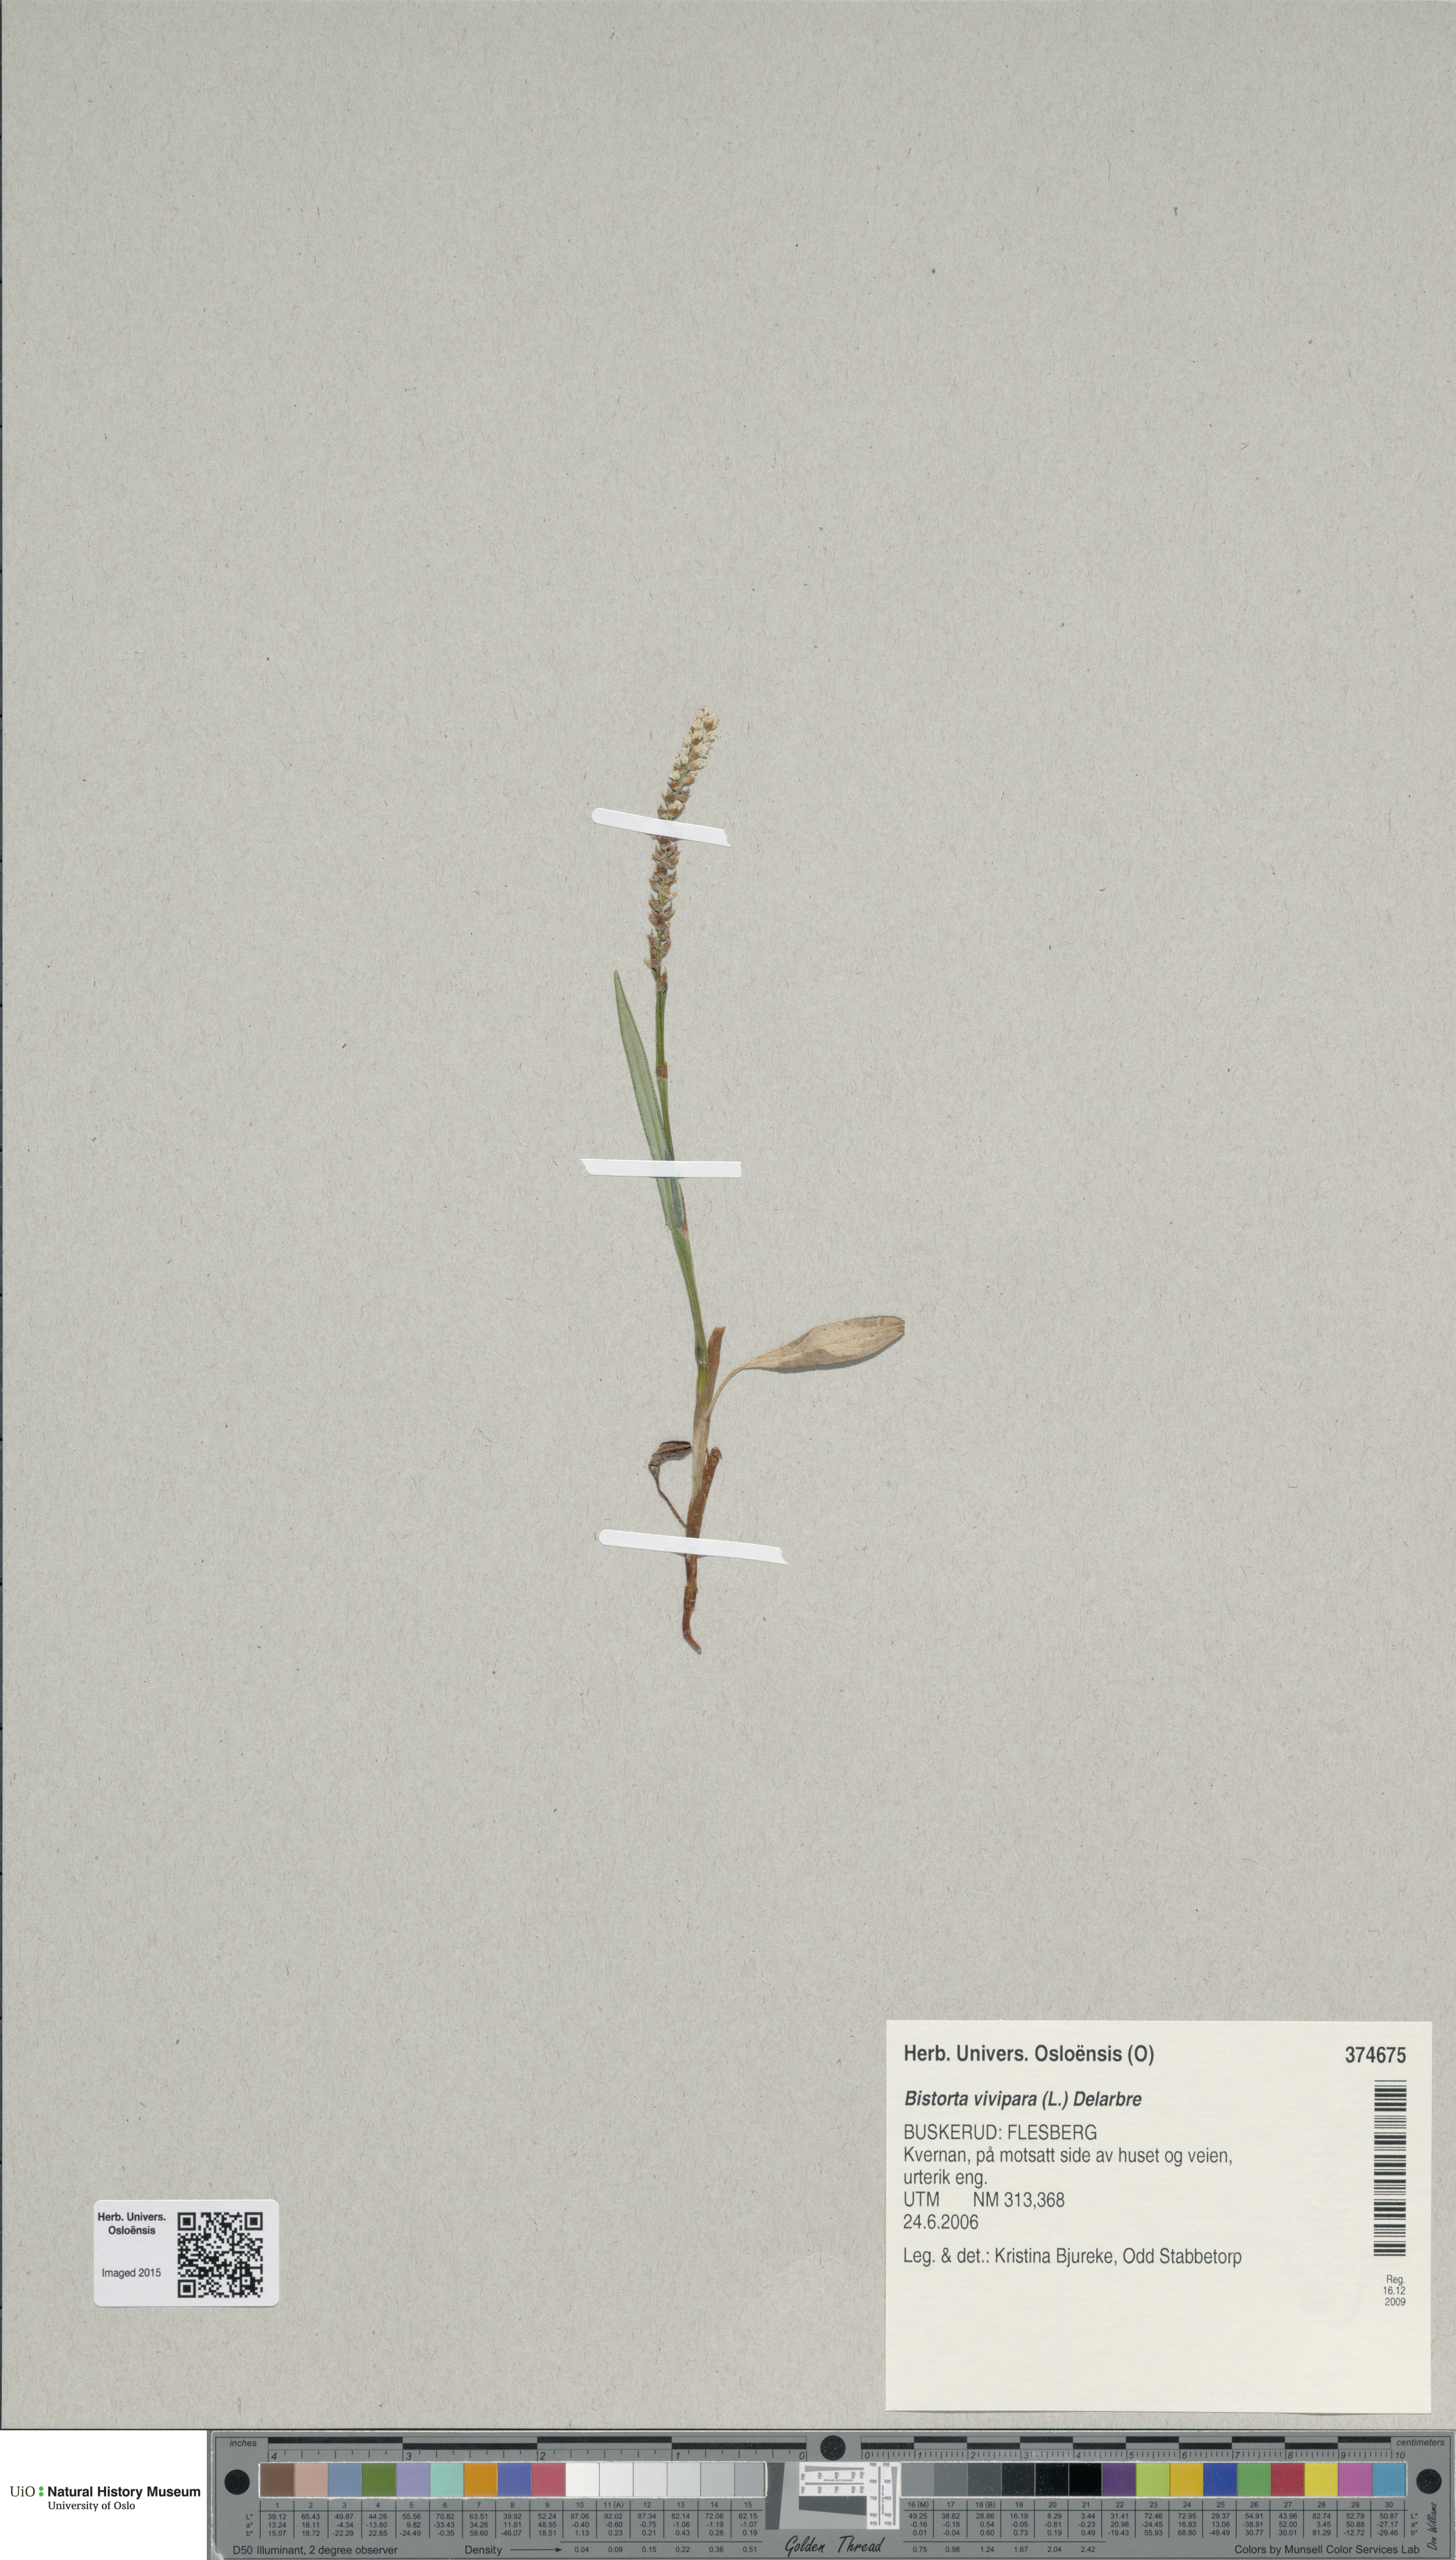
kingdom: Plantae
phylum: Tracheophyta
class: Magnoliopsida
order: Caryophyllales
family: Polygonaceae
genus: Bistorta
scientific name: Bistorta vivipara
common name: Alpine bistort
